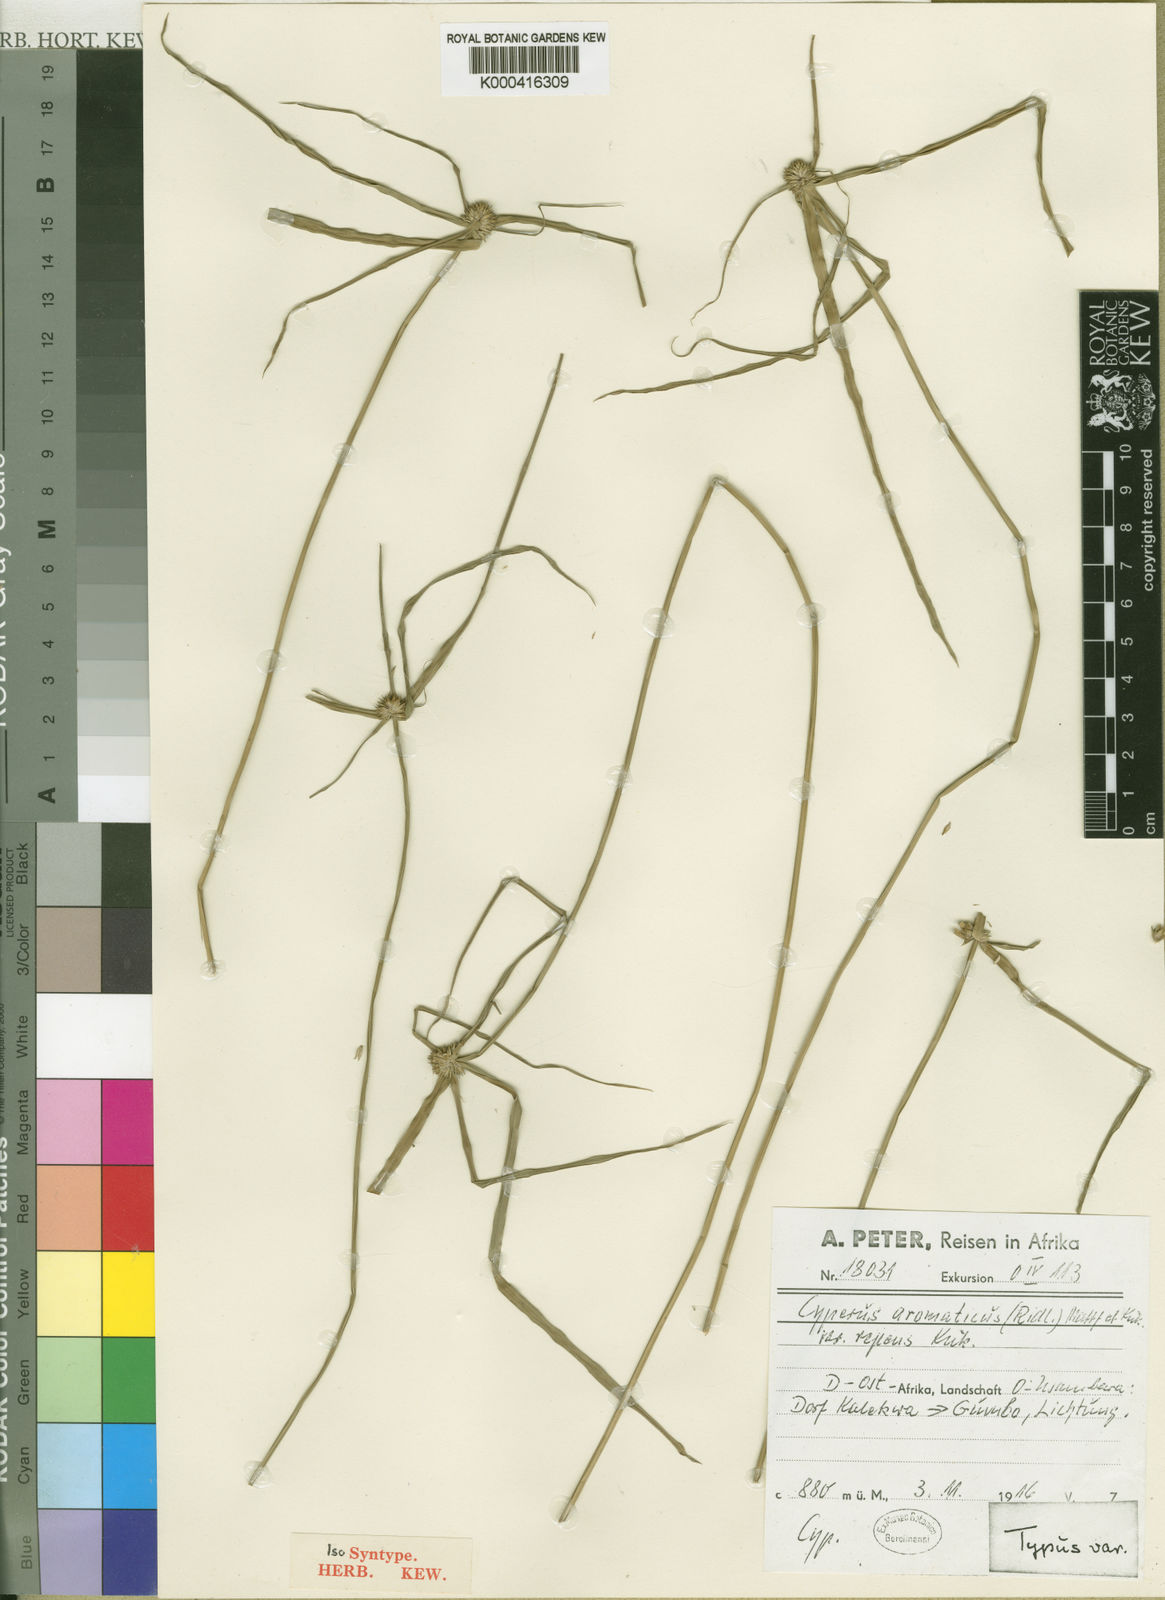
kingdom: Plantae
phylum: Tracheophyta
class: Liliopsida
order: Poales
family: Cyperaceae
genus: Cyperus
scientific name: Cyperus
